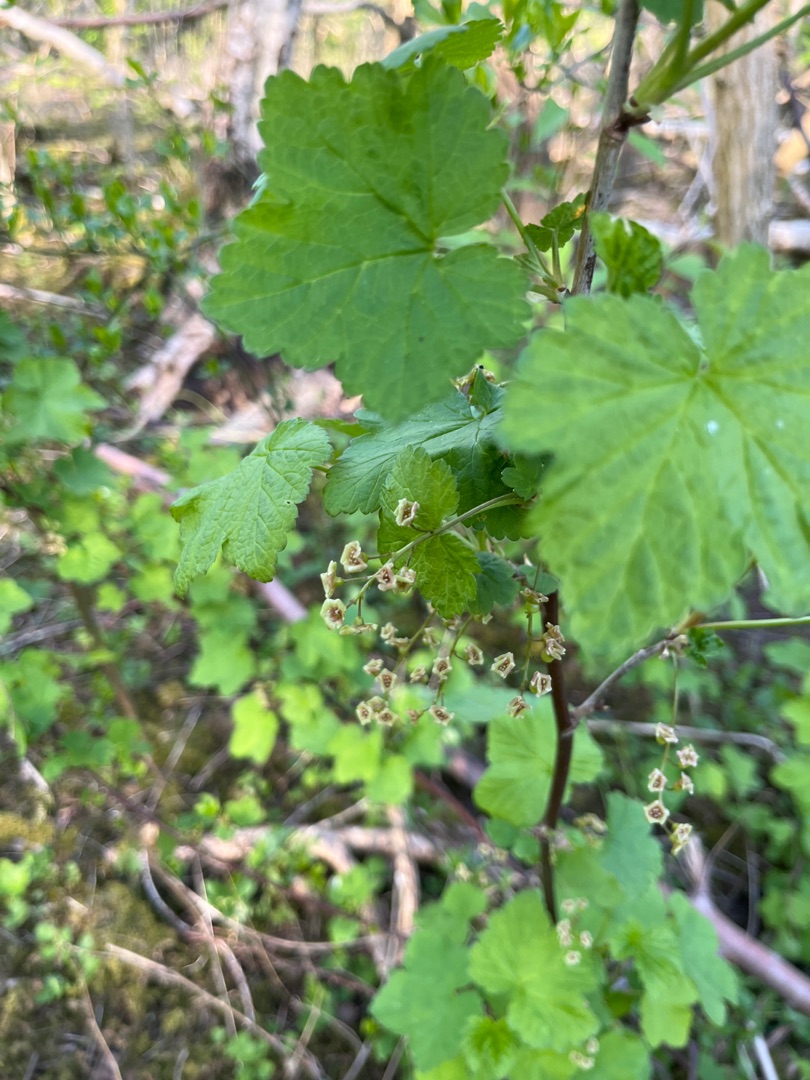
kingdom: Plantae
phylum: Tracheophyta
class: Magnoliopsida
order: Saxifragales
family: Grossulariaceae
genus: Ribes
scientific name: Ribes rubrum
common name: Slots-ribs
